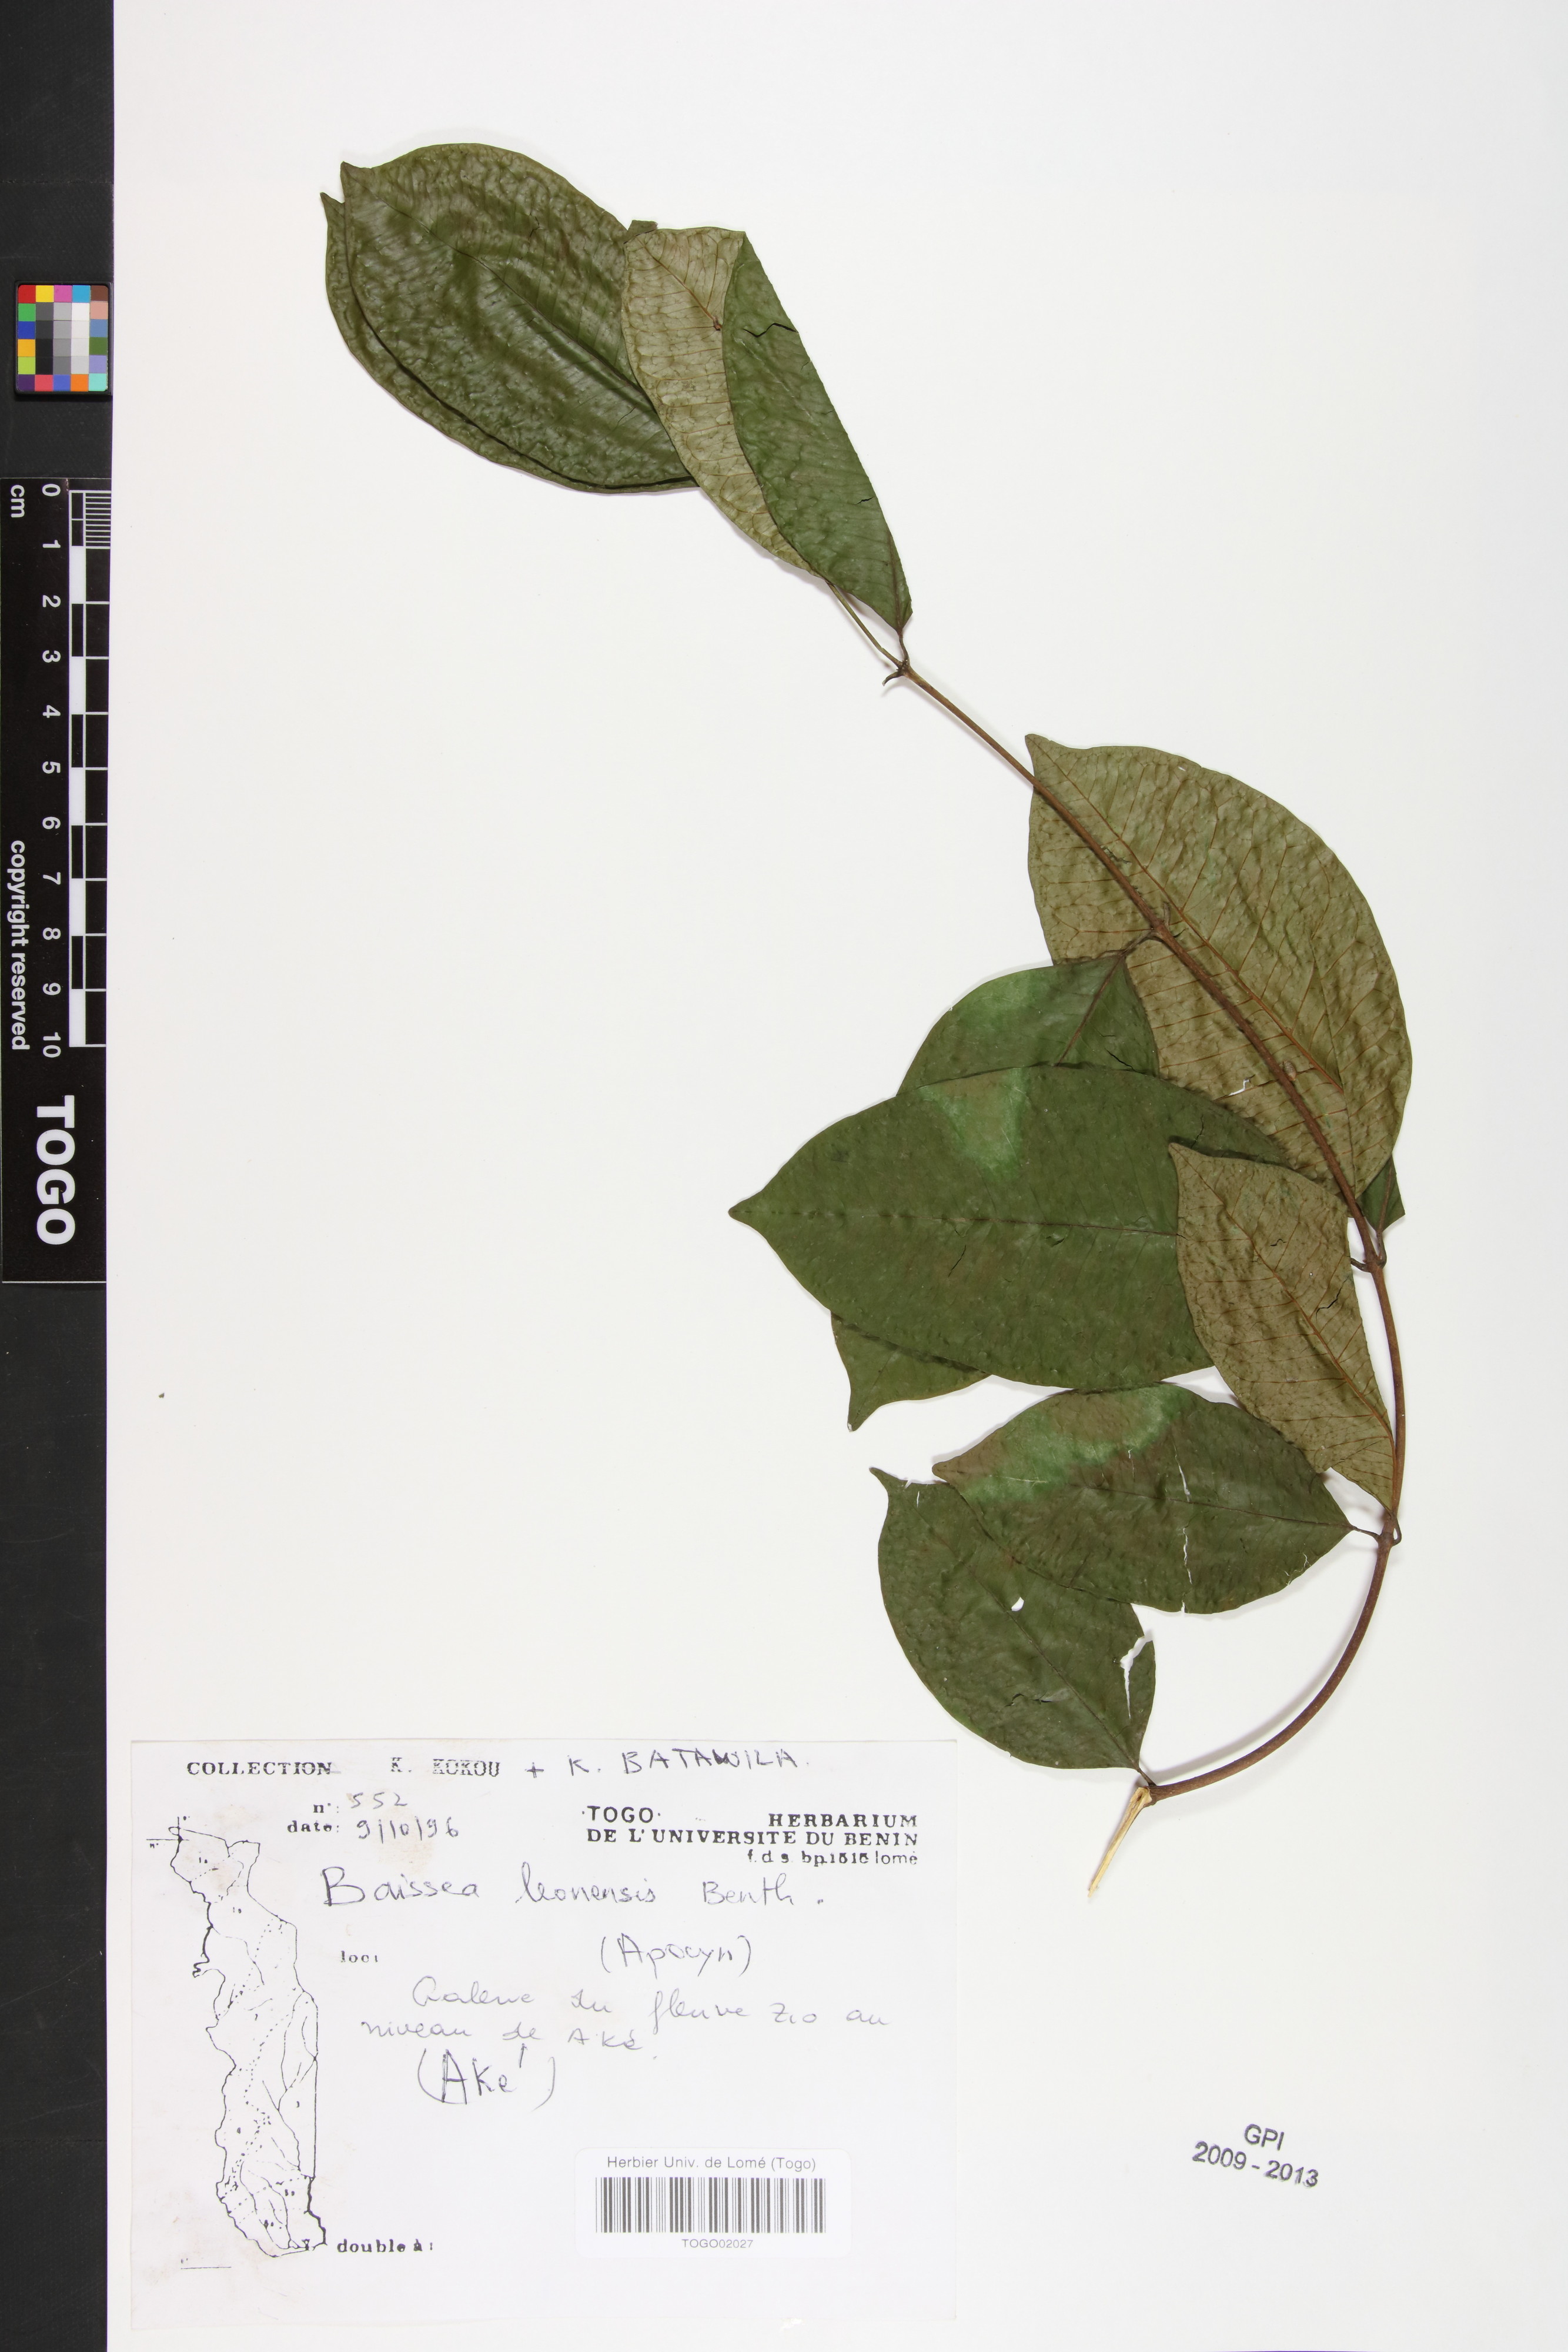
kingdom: Plantae
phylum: Tracheophyta
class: Magnoliopsida
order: Gentianales
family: Apocynaceae
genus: Baissea
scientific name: Baissea leonensis
